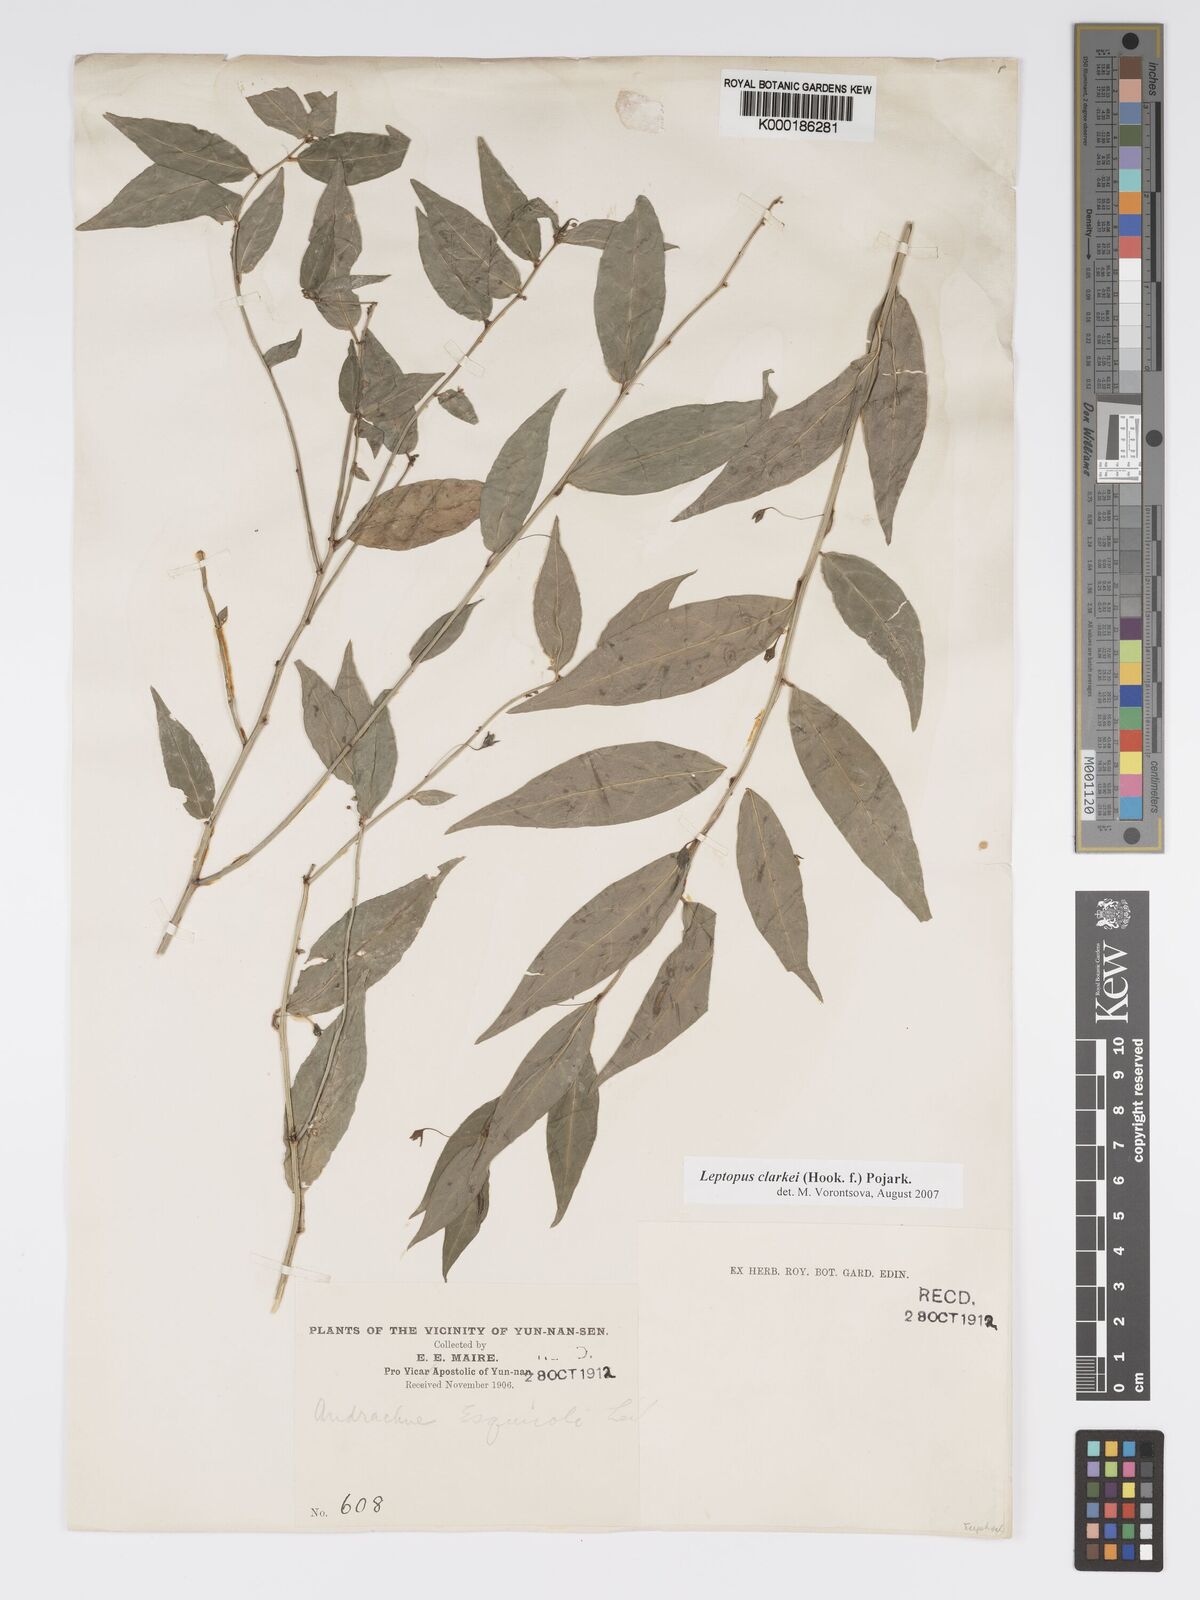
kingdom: Plantae
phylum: Tracheophyta
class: Magnoliopsida
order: Malpighiales
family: Phyllanthaceae
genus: Leptopus
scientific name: Leptopus clarkei
